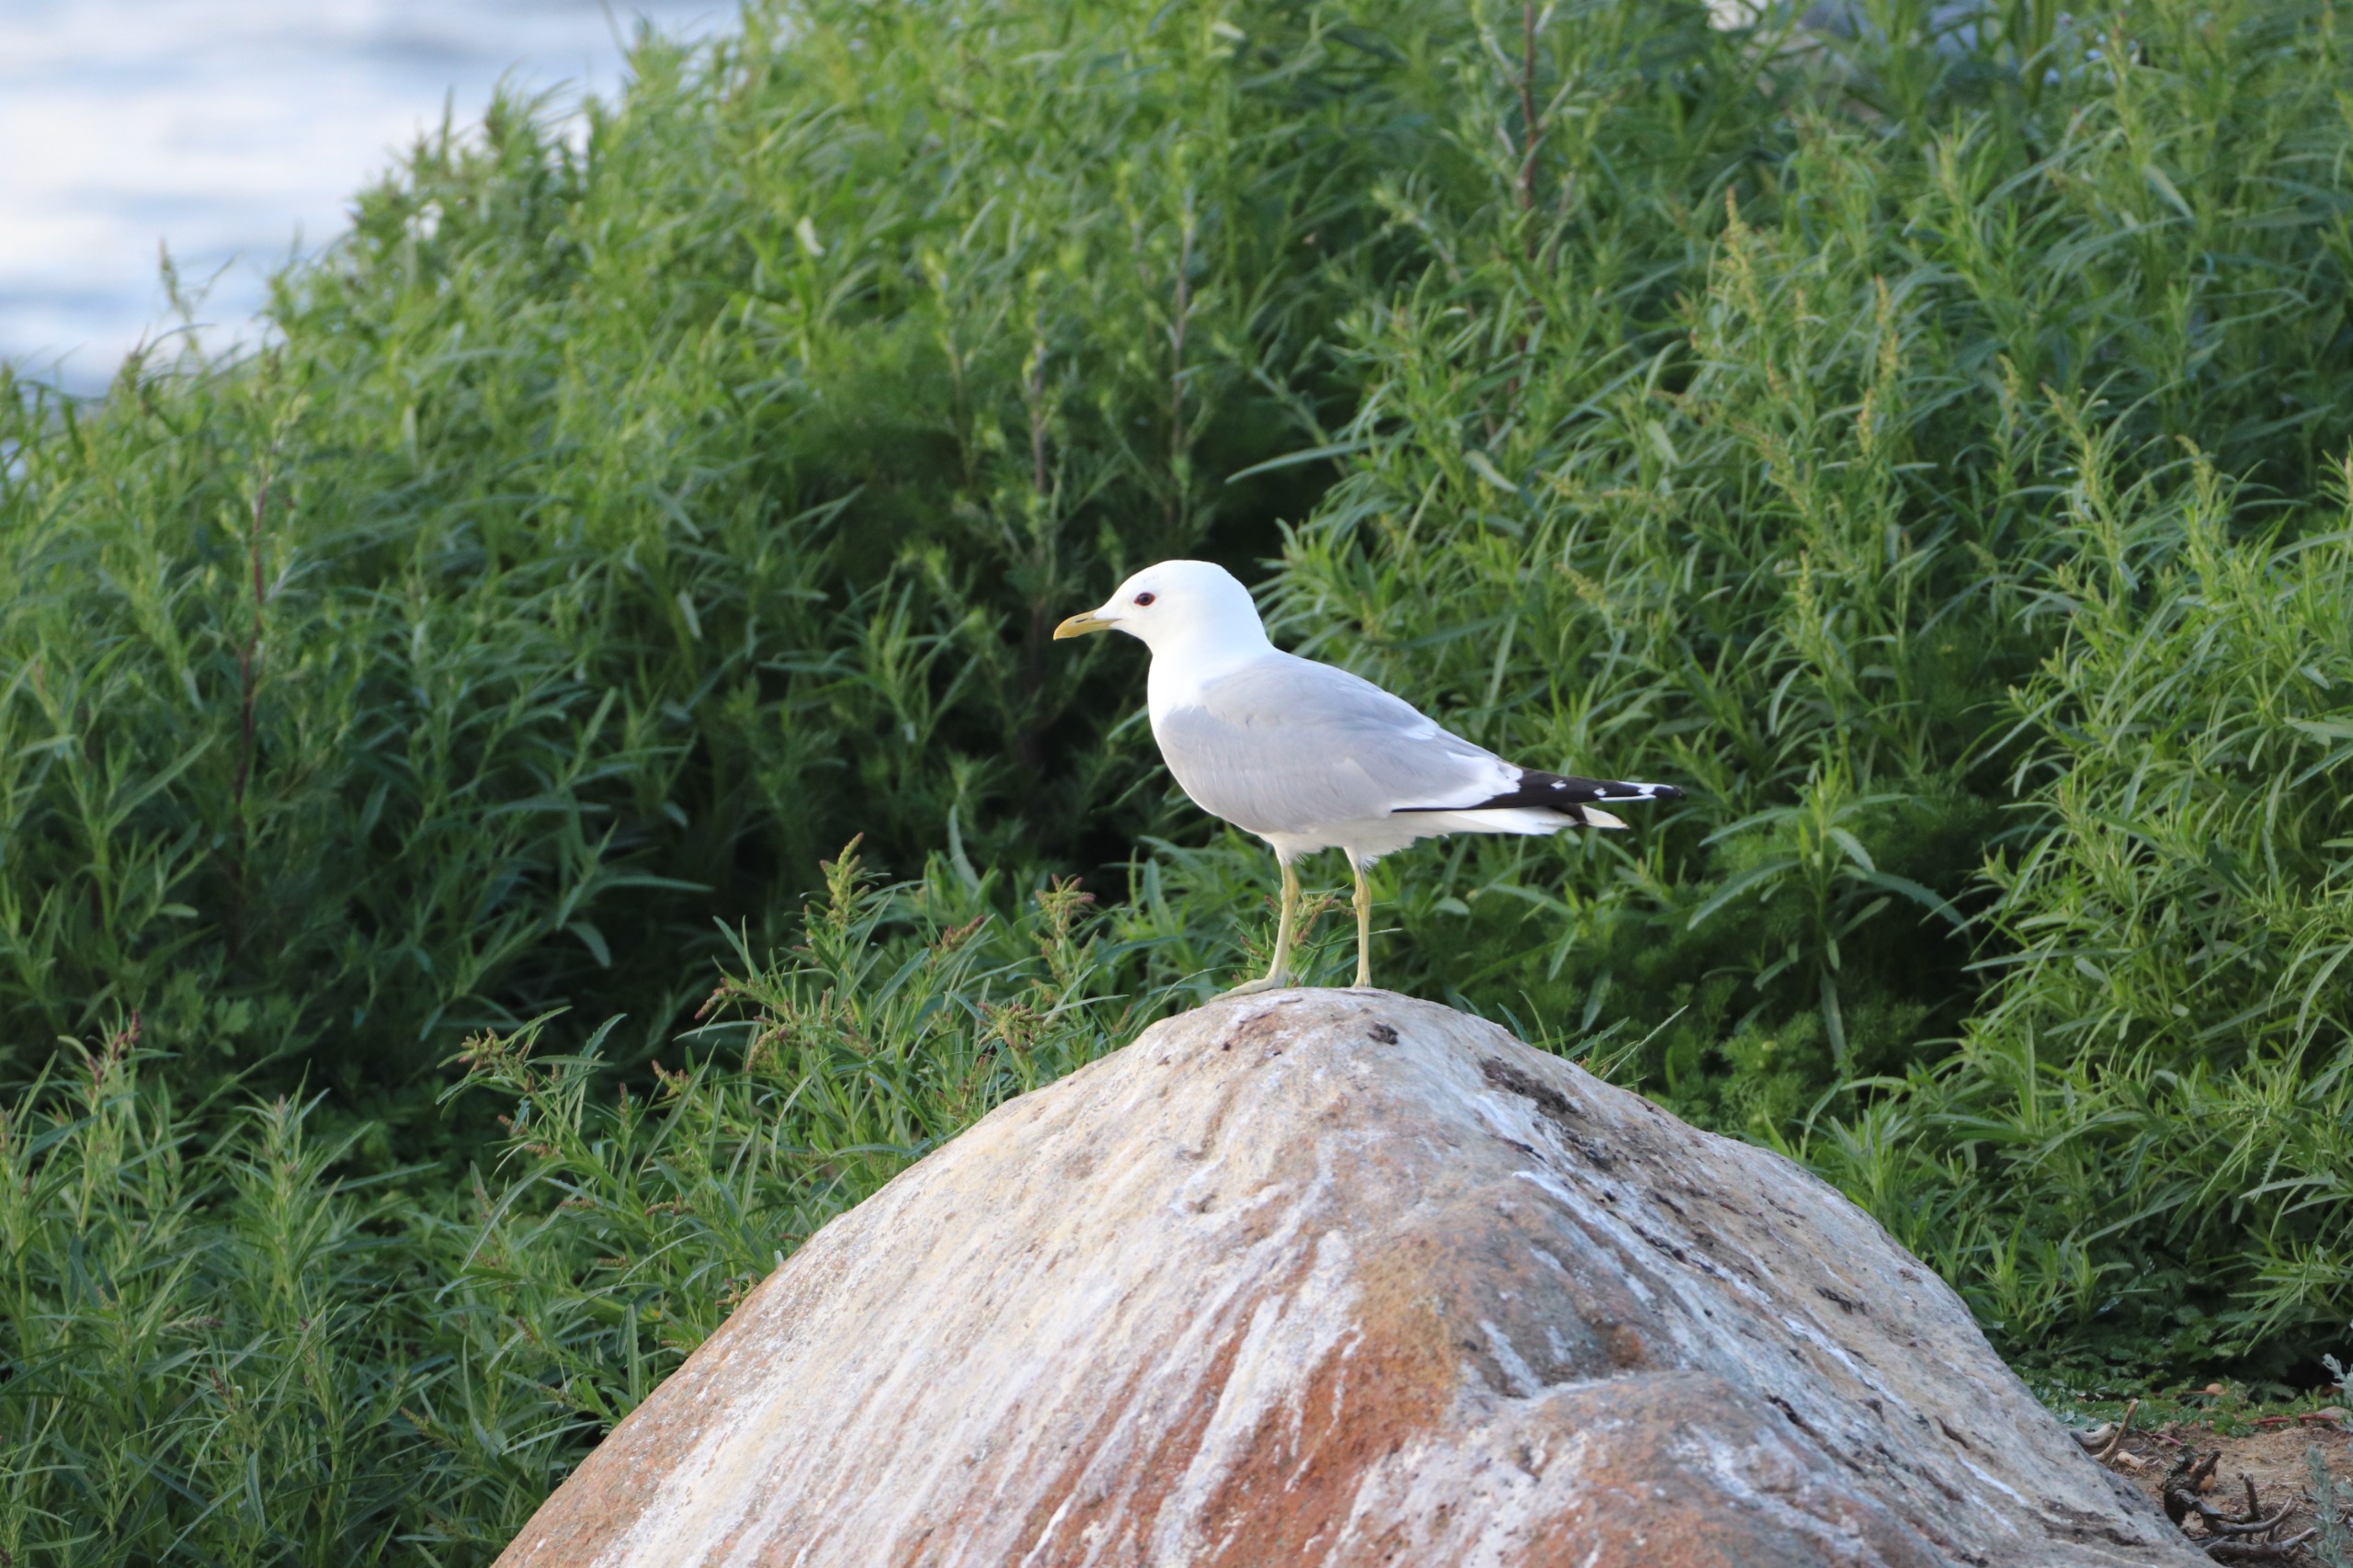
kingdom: Animalia
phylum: Chordata
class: Aves
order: Charadriiformes
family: Laridae
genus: Larus
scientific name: Larus canus
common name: Stormmåge
